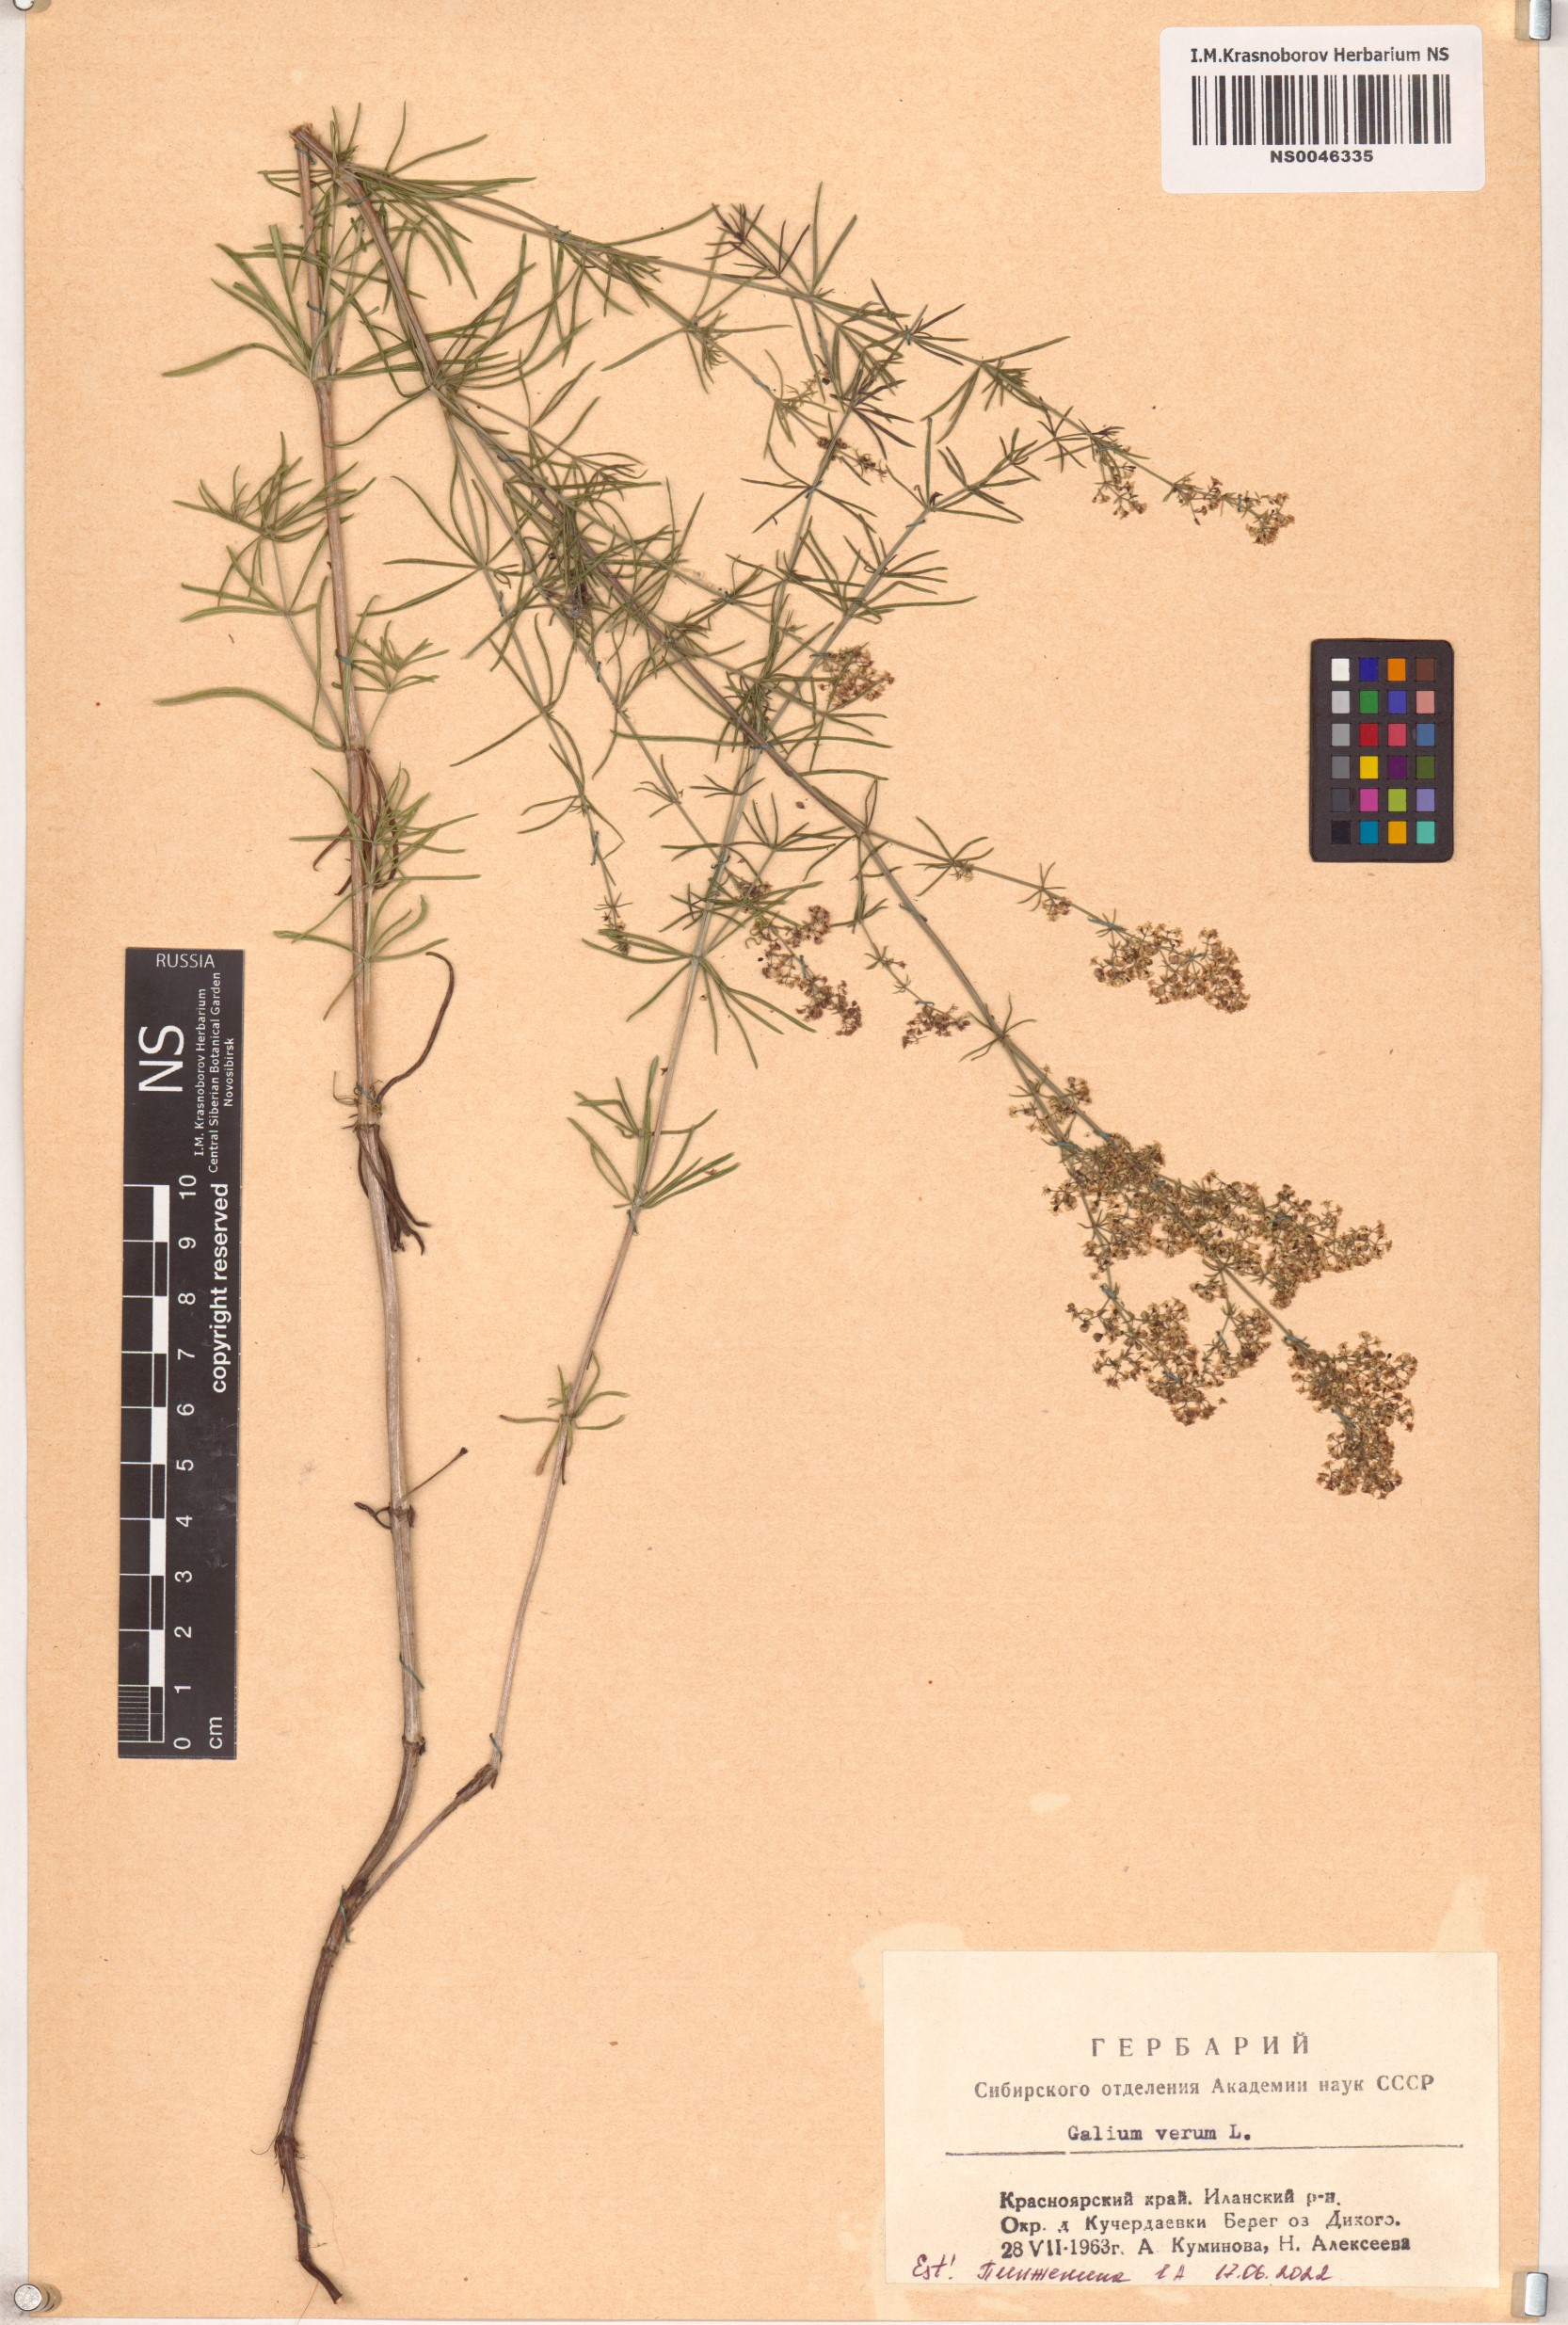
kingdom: Plantae
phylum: Tracheophyta
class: Magnoliopsida
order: Gentianales
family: Rubiaceae
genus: Galium
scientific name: Galium verum
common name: Lady's bedstraw
